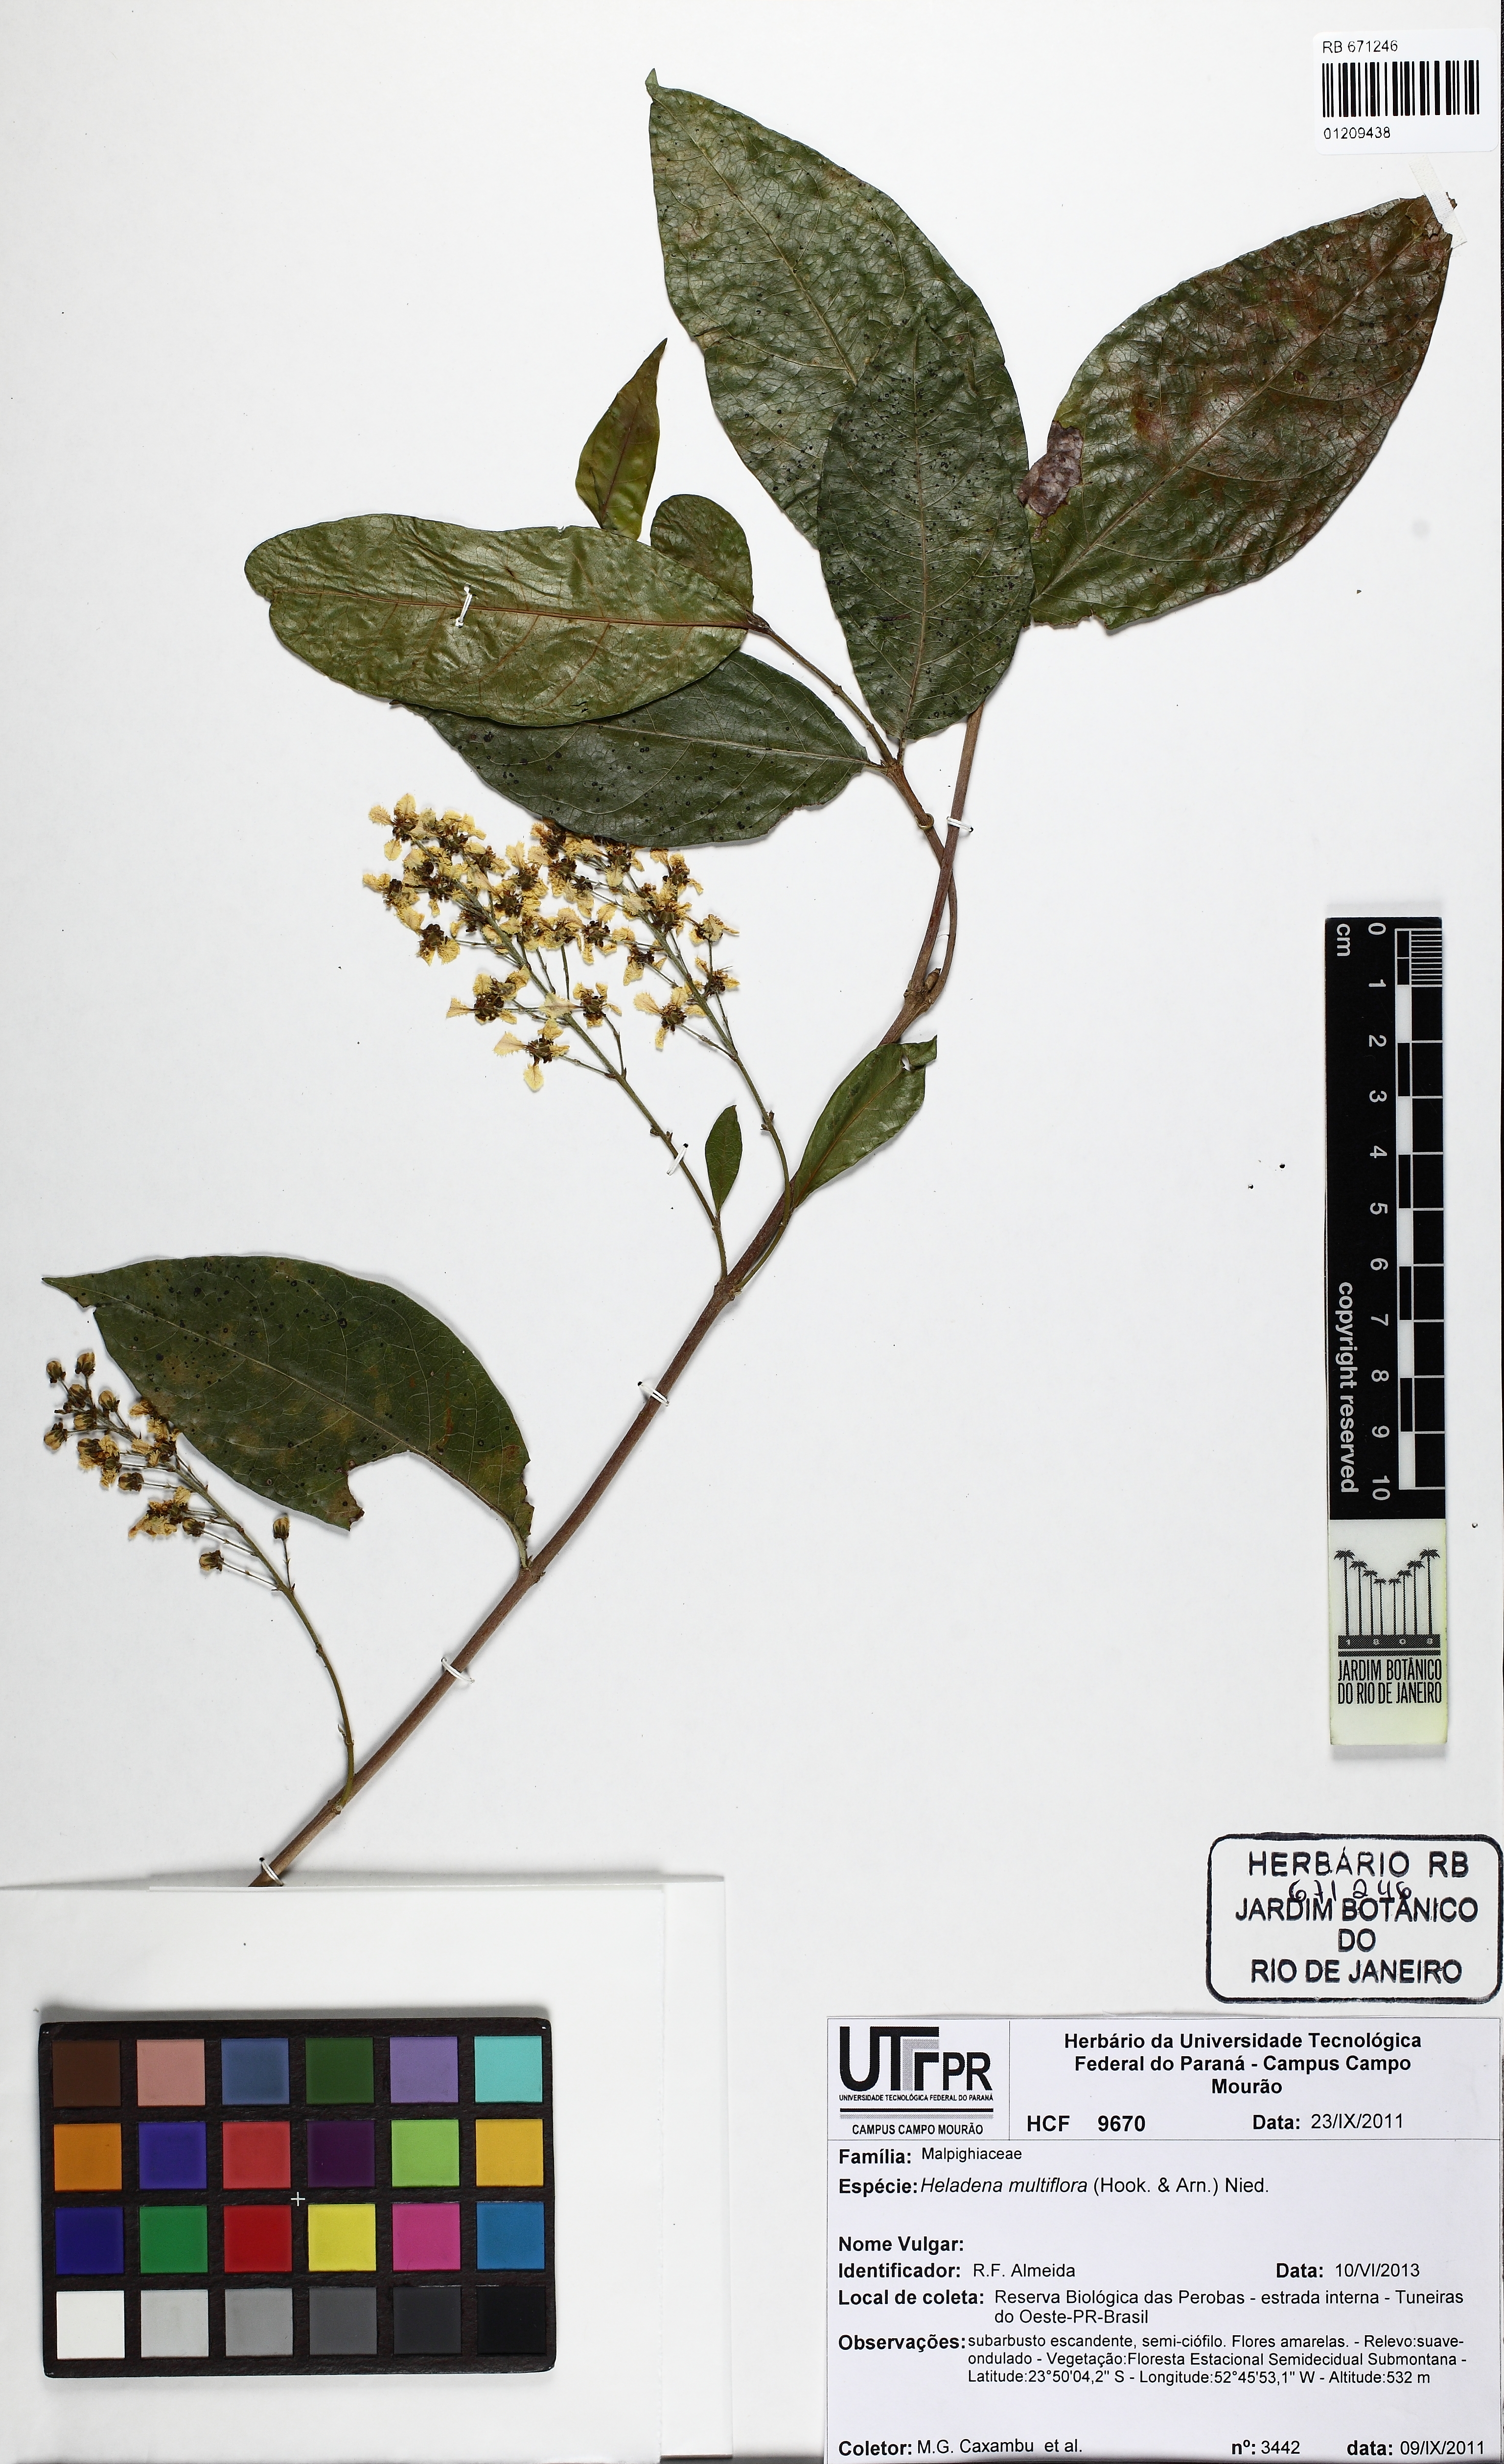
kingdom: Plantae
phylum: Tracheophyta
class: Magnoliopsida
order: Malpighiales
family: Malpighiaceae
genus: Heladena
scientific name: Heladena multiflora
